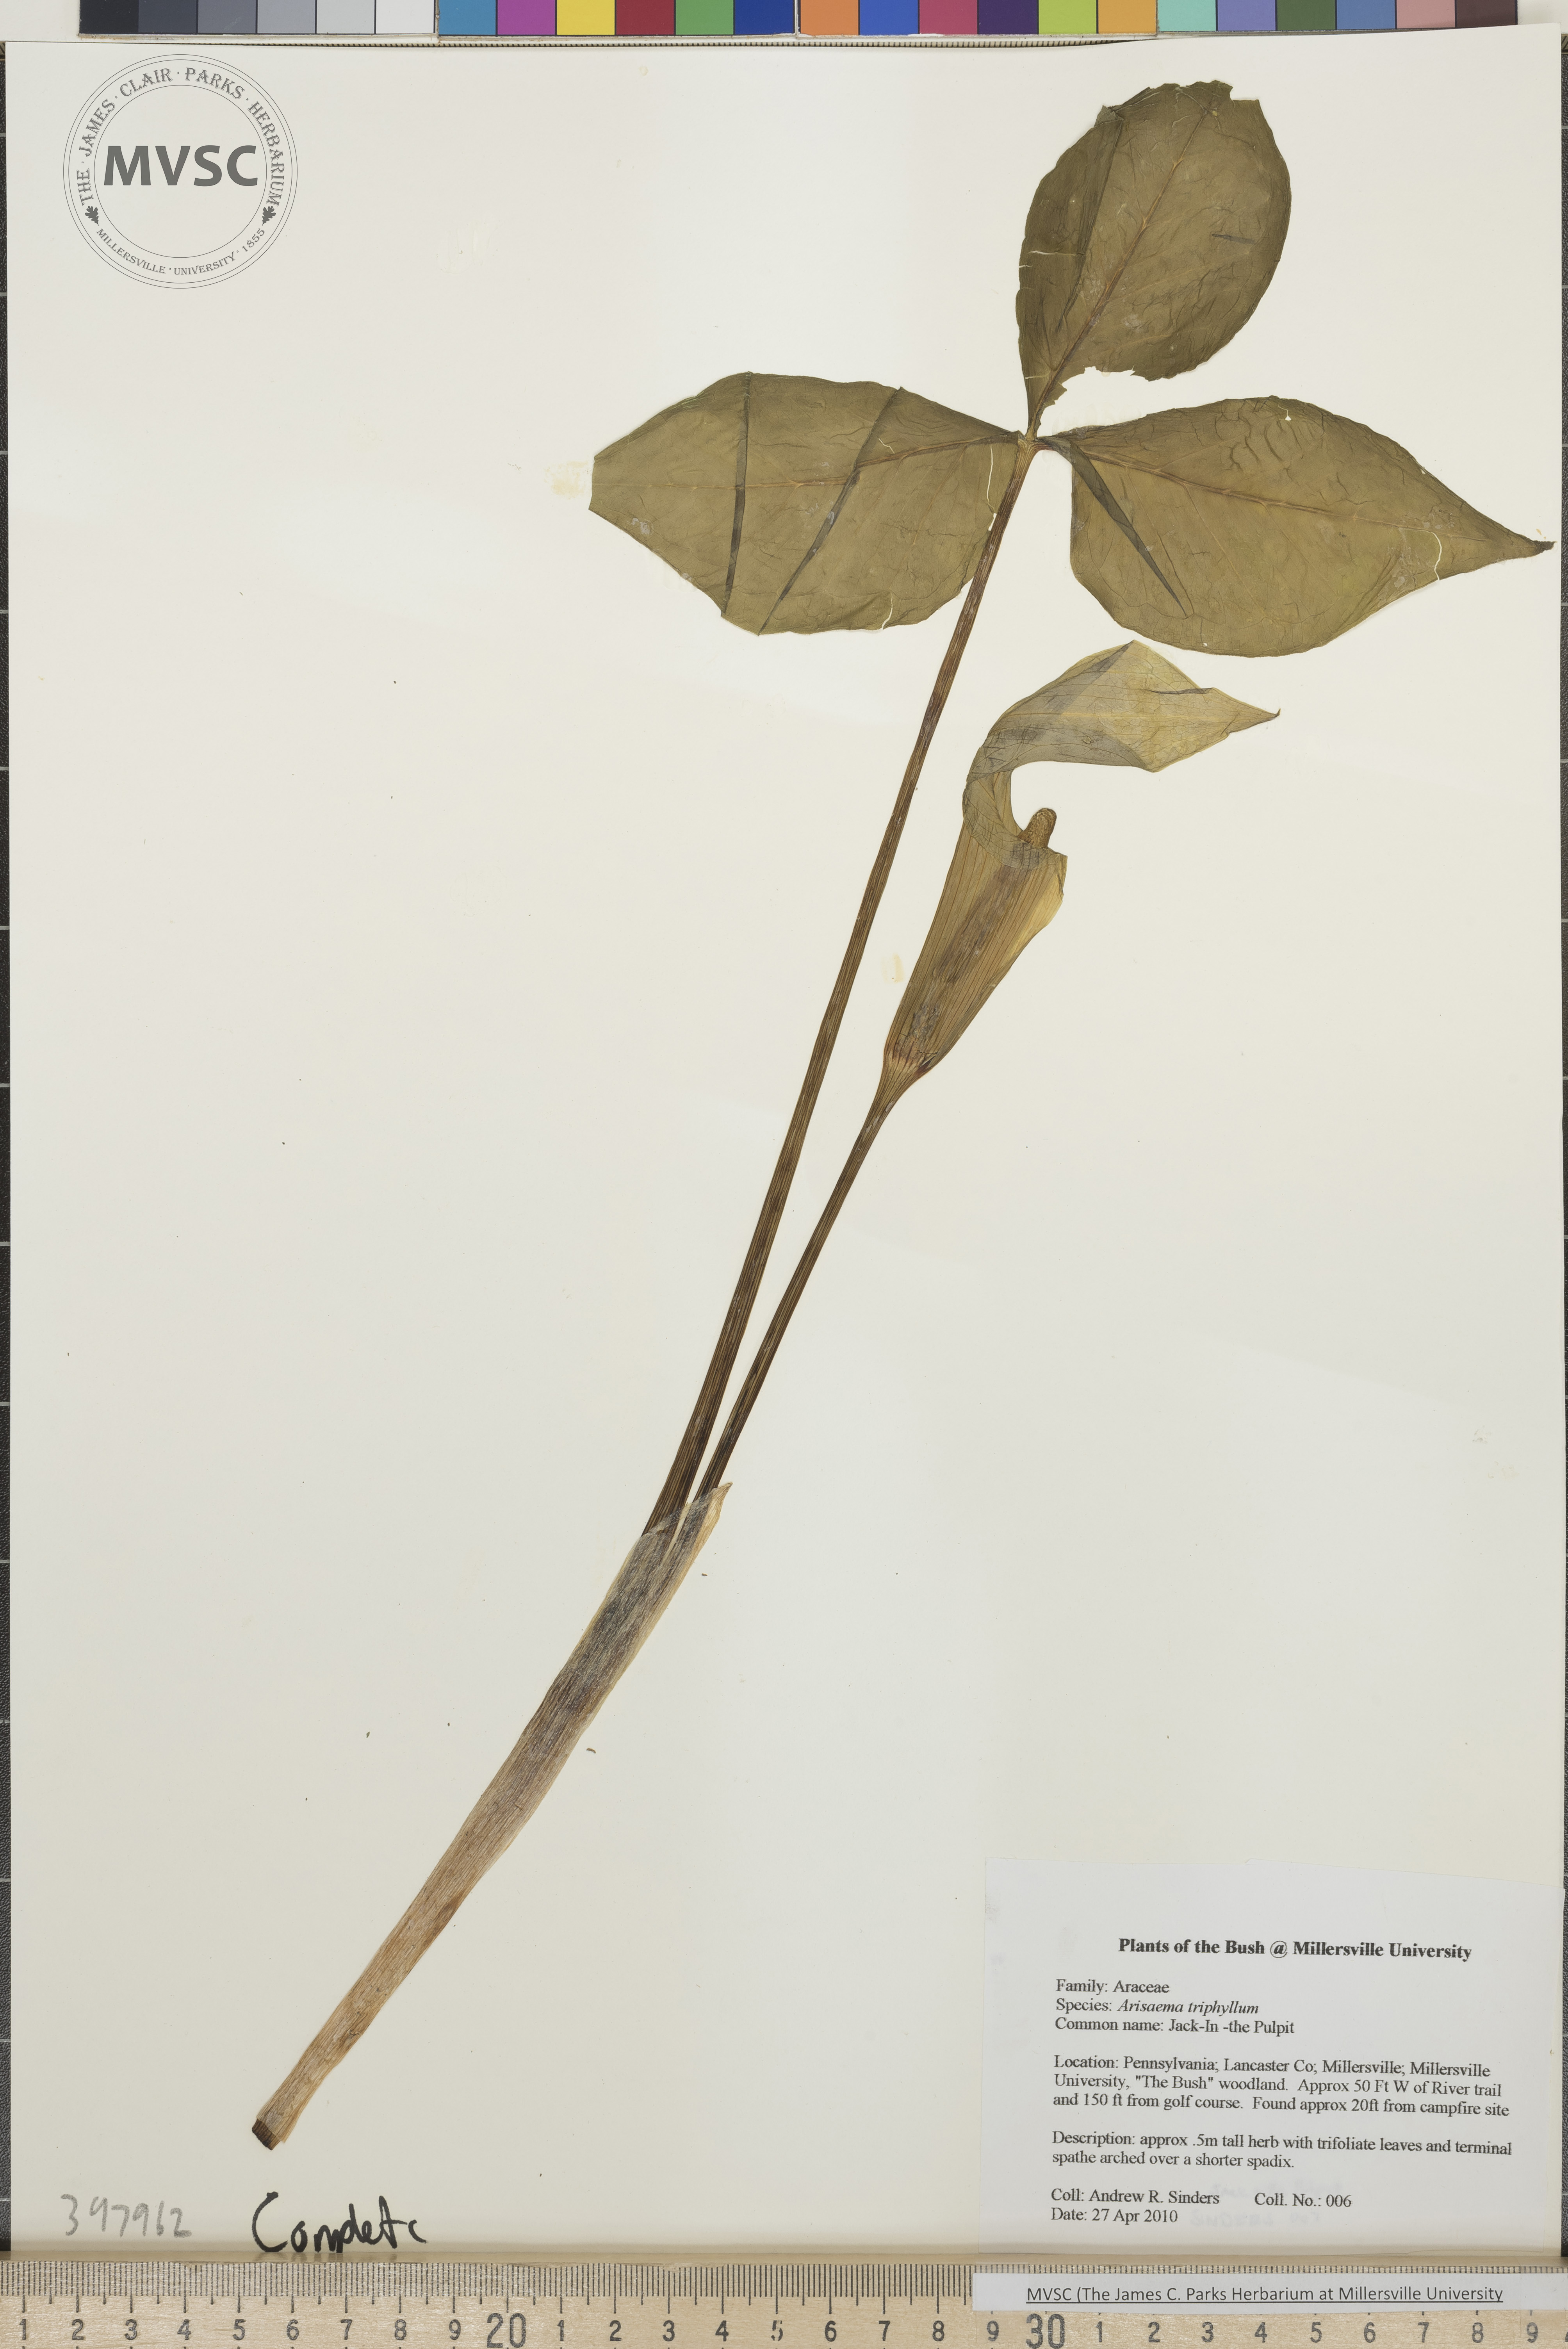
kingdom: Plantae
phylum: Tracheophyta
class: Liliopsida
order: Alismatales
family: Araceae
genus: Arisaema
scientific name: Arisaema triphyllum
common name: Jack-in-the-Pulpit
